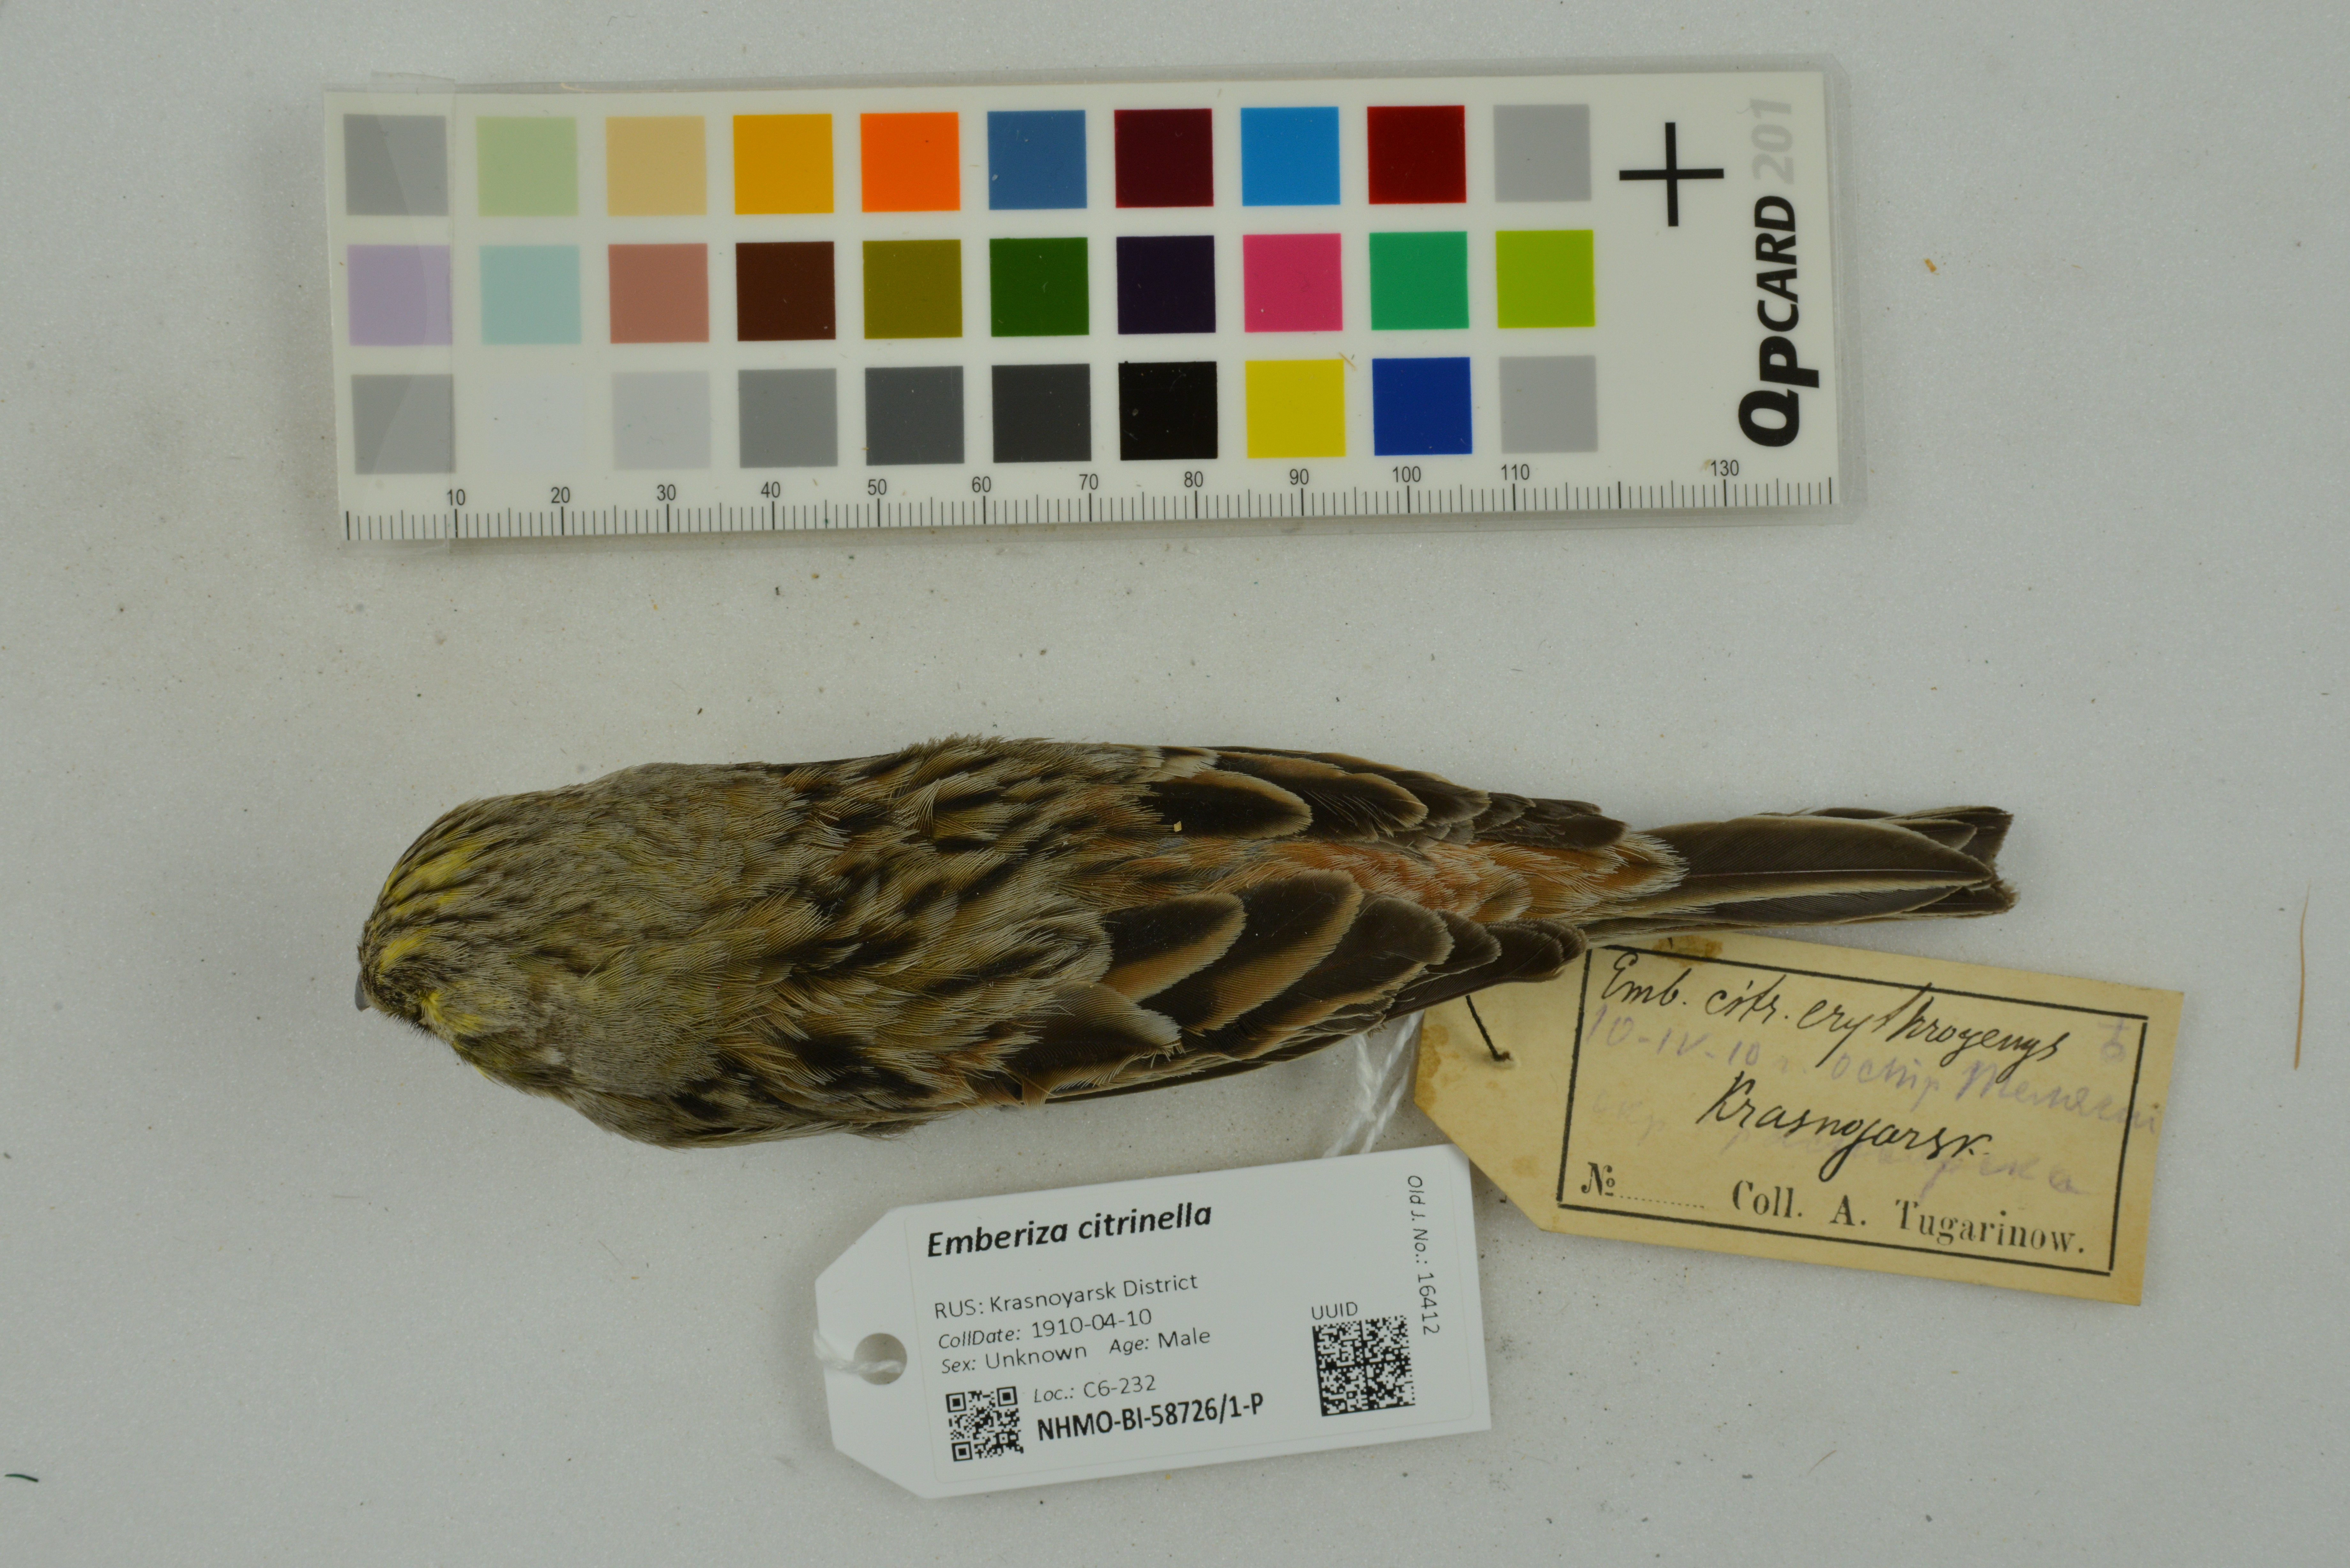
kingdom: Animalia
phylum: Chordata
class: Aves
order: Passeriformes
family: Emberizidae
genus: Emberiza
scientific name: Emberiza citrinella
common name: Yellowhammer
